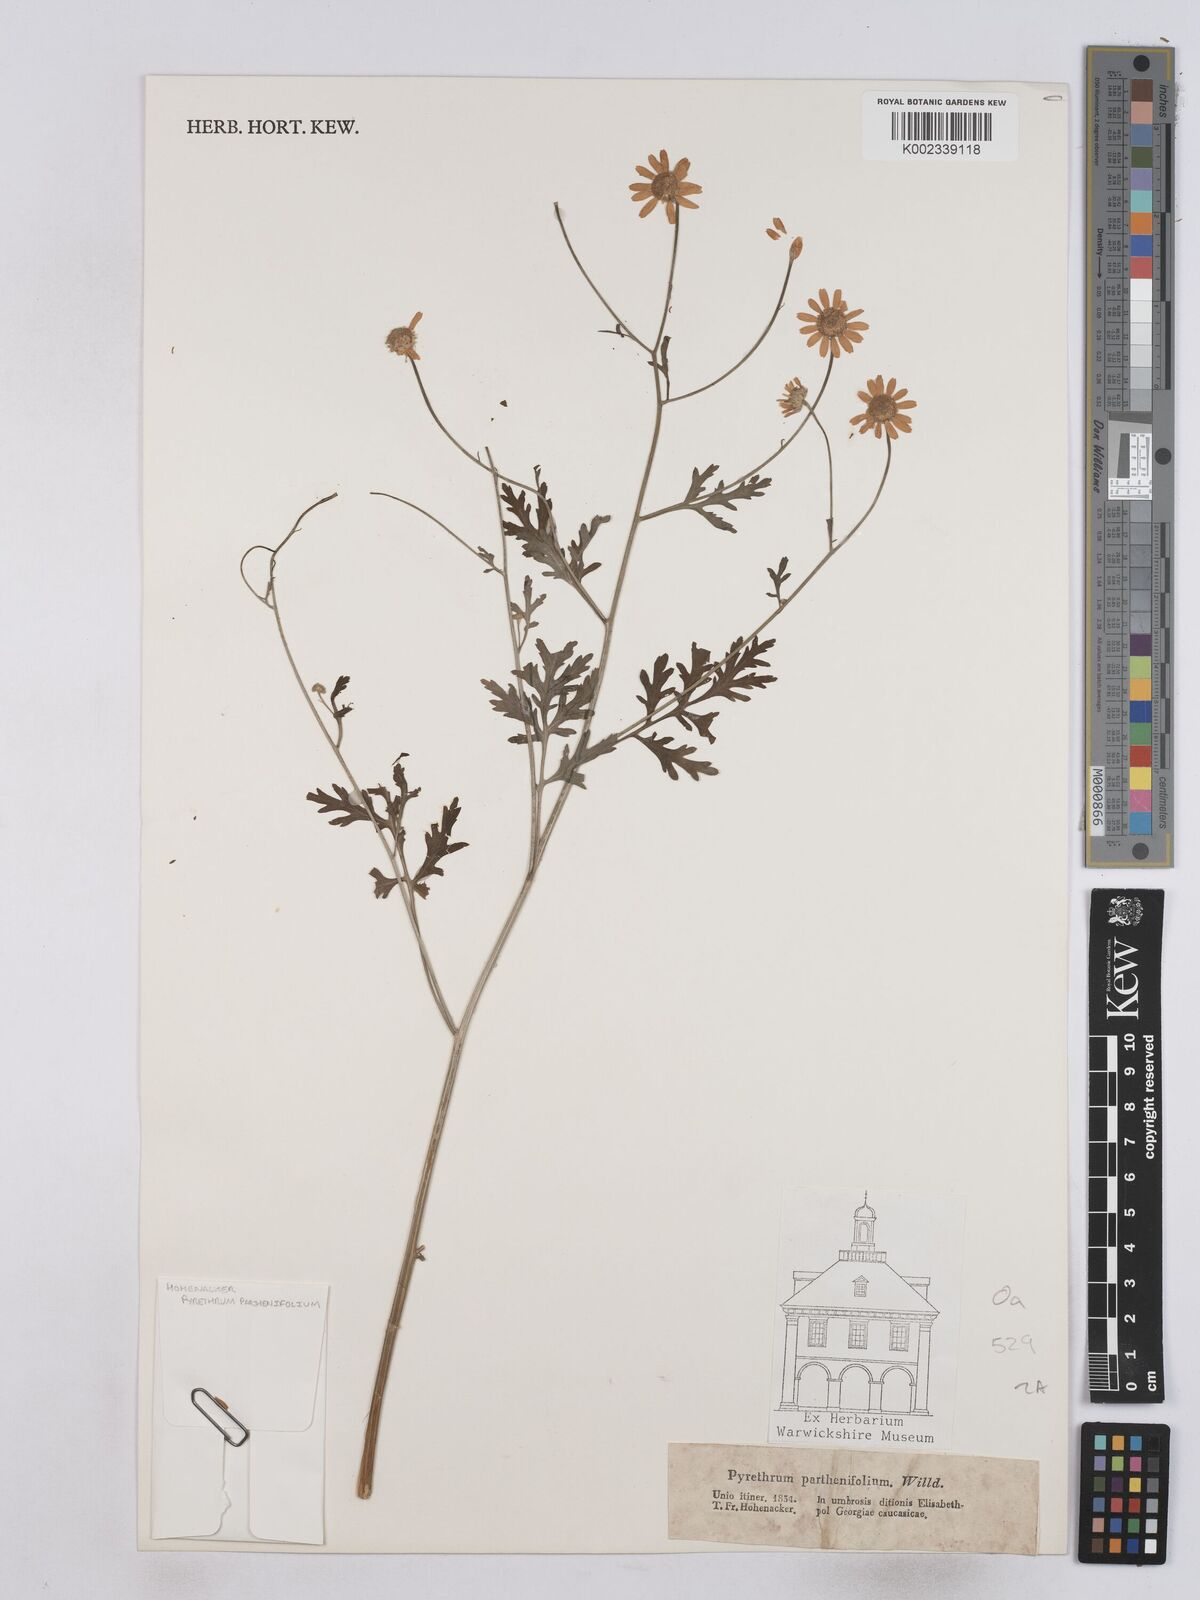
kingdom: Plantae
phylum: Tracheophyta
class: Magnoliopsida
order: Asterales
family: Asteraceae
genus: Tanacetum
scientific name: Tanacetum partheniifolium
